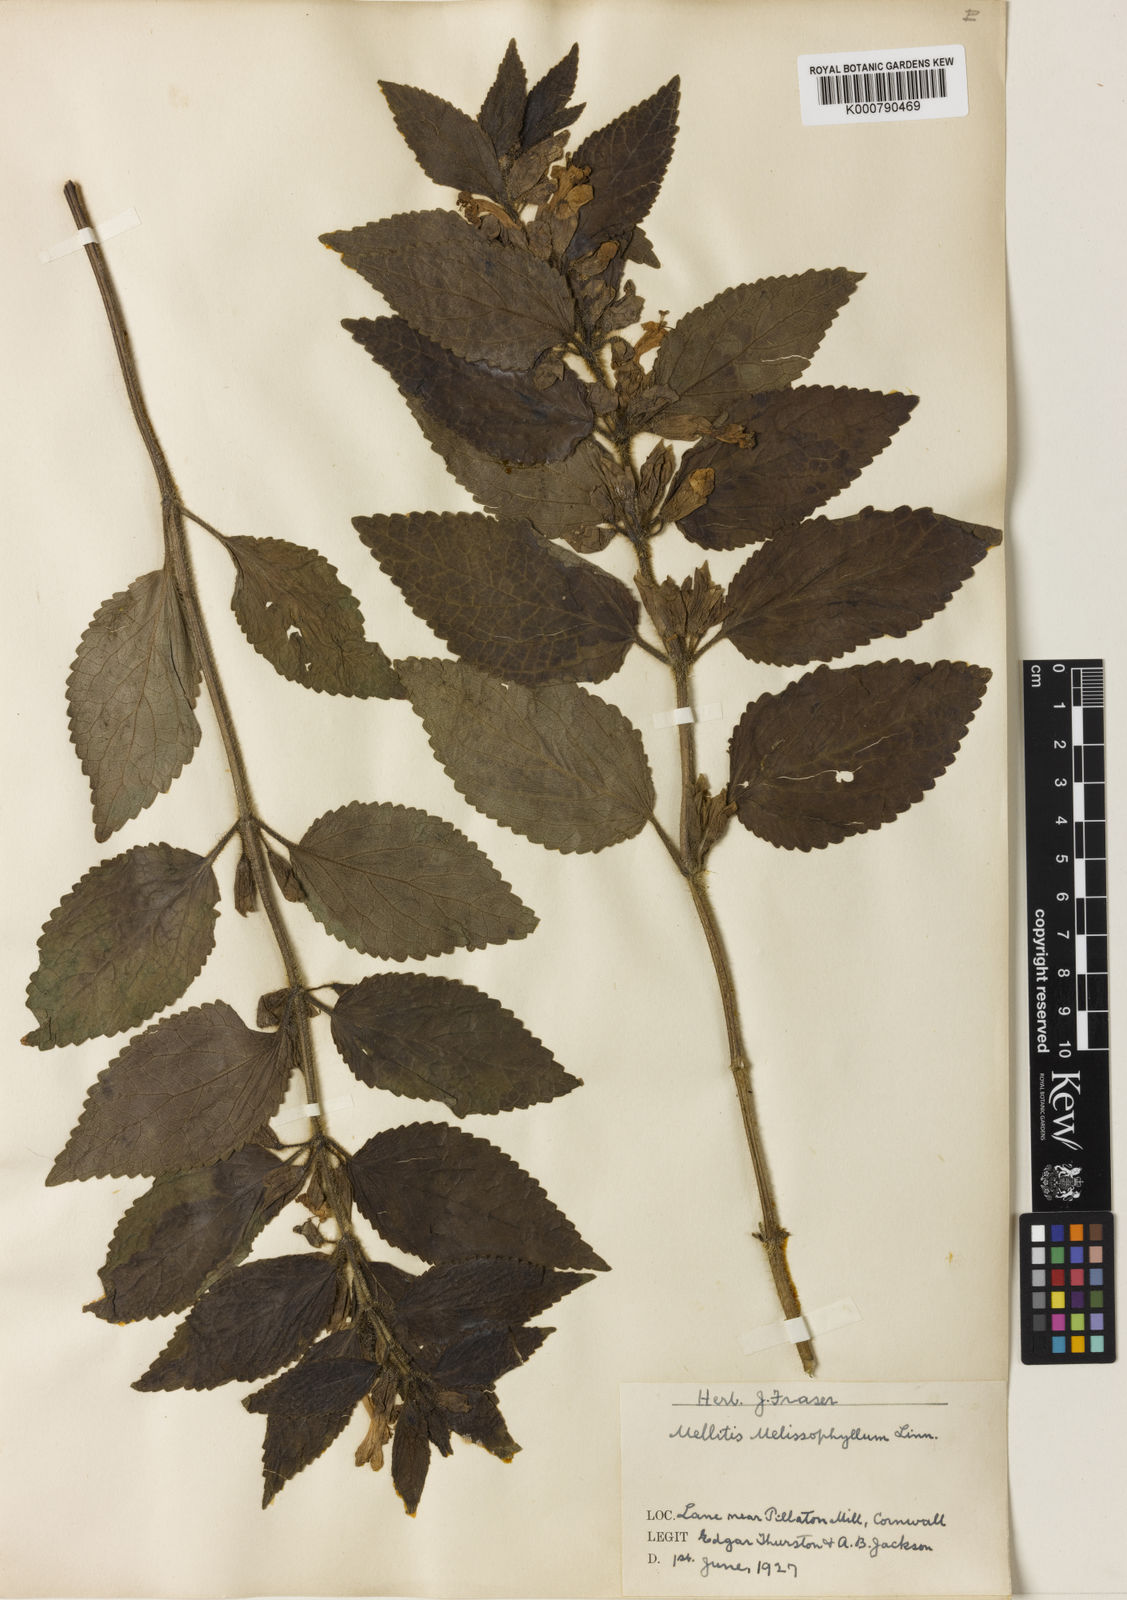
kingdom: Plantae
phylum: Tracheophyta
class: Magnoliopsida
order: Lamiales
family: Lamiaceae
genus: Melittis
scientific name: Melittis melissophyllum
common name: Bastard balm
